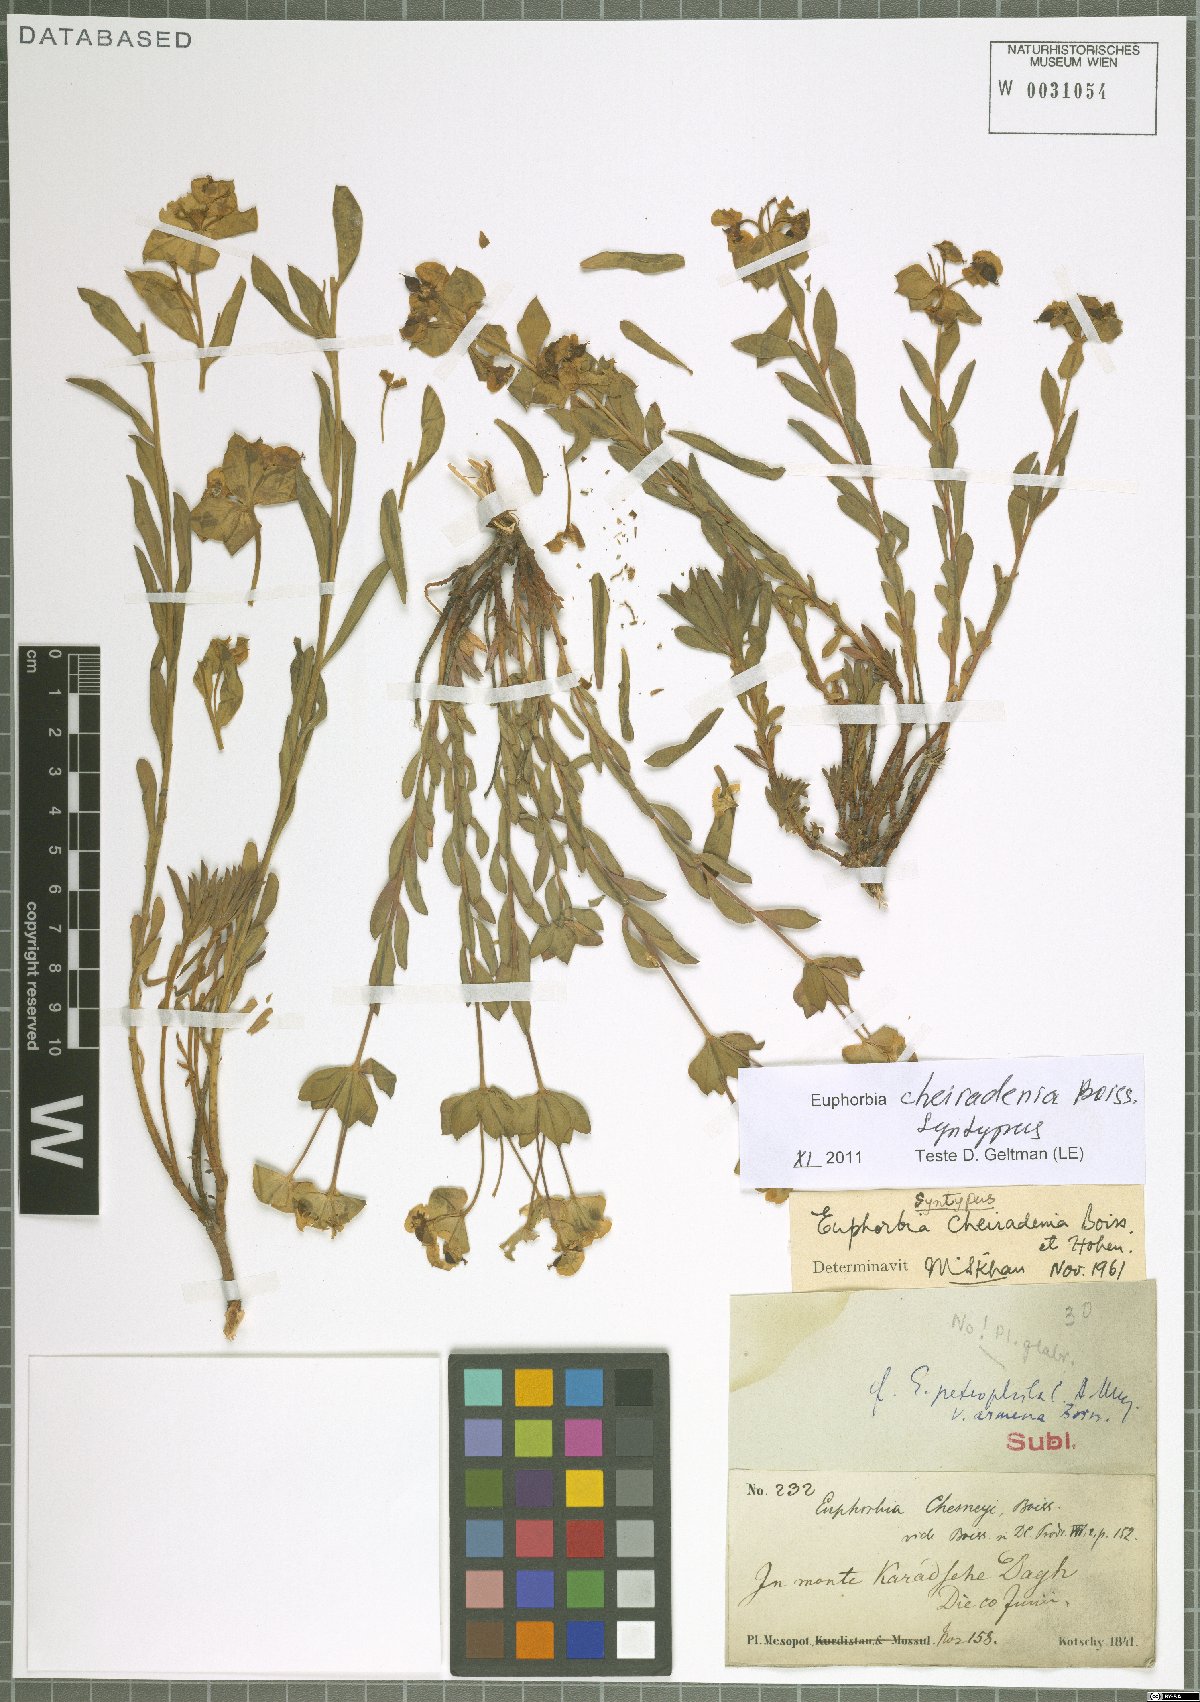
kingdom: Plantae
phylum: Tracheophyta
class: Magnoliopsida
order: Malpighiales
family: Euphorbiaceae
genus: Euphorbia
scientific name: Euphorbia cheiradenia
